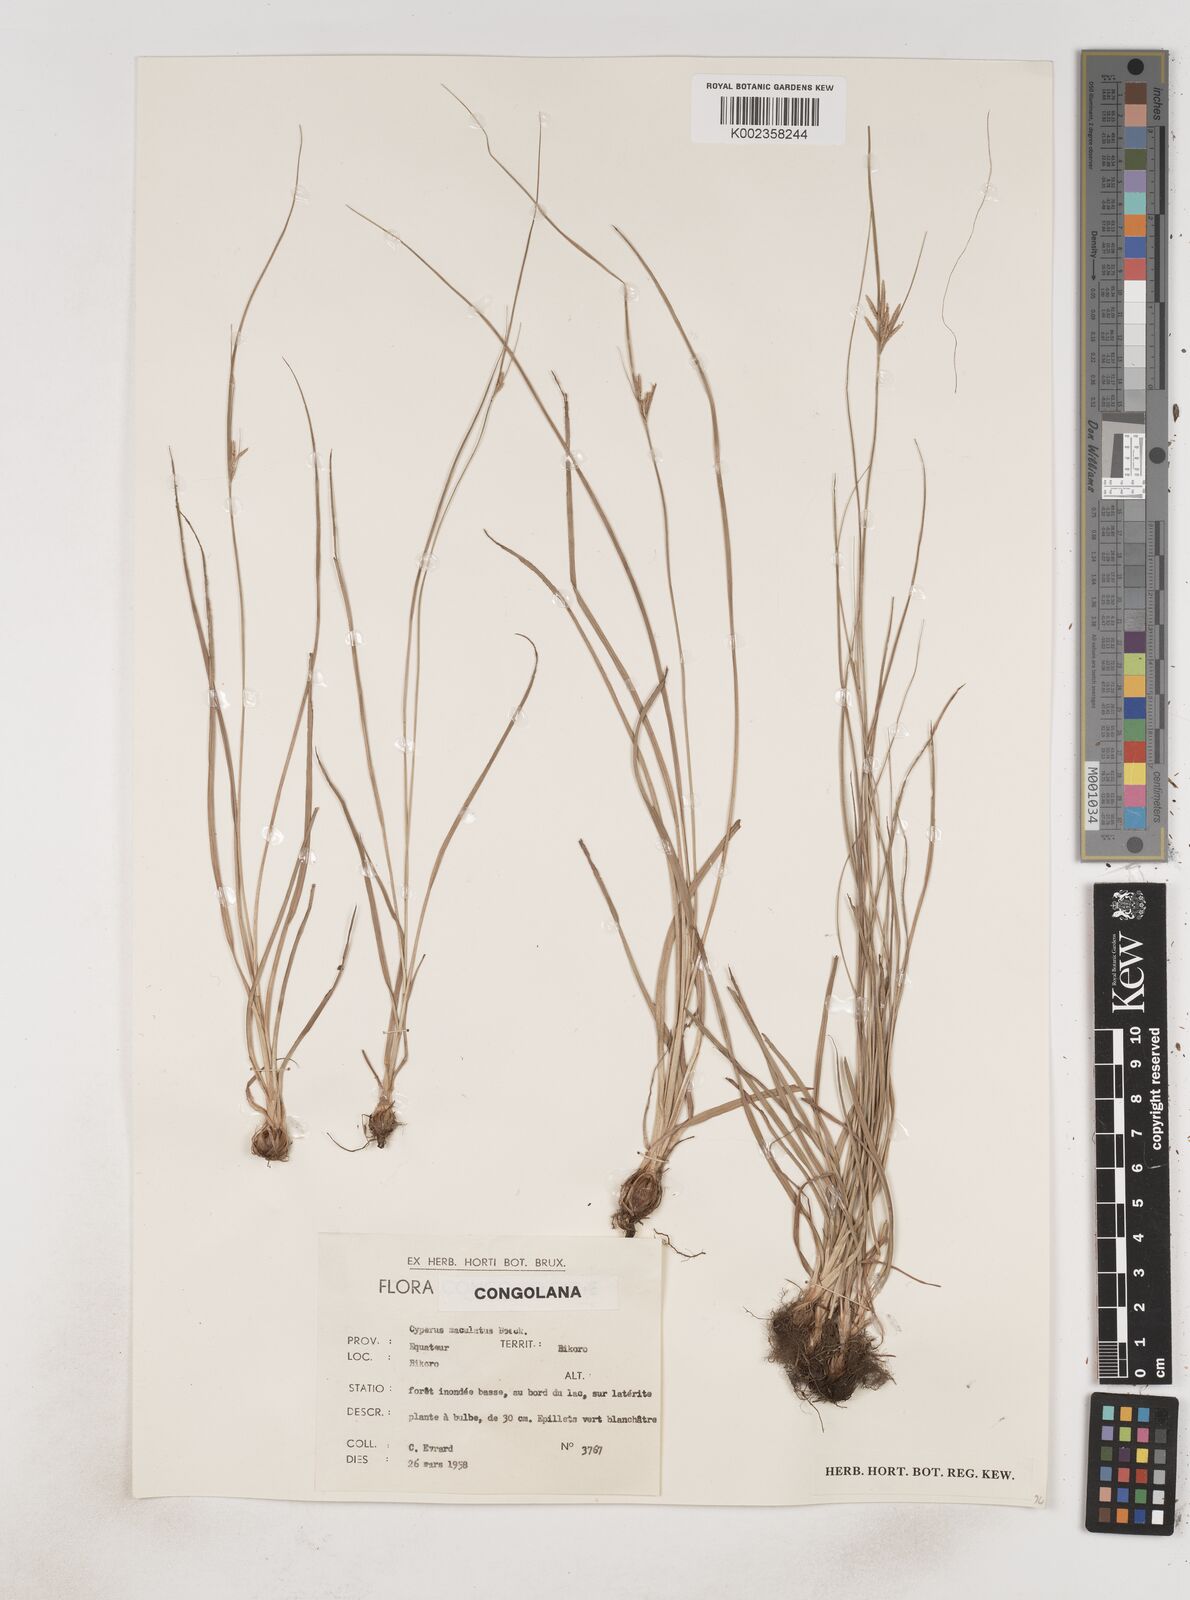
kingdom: Plantae
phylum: Tracheophyta
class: Liliopsida
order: Poales
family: Cyperaceae
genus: Cyperus
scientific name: Cyperus maculatus
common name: Maculated sedge
